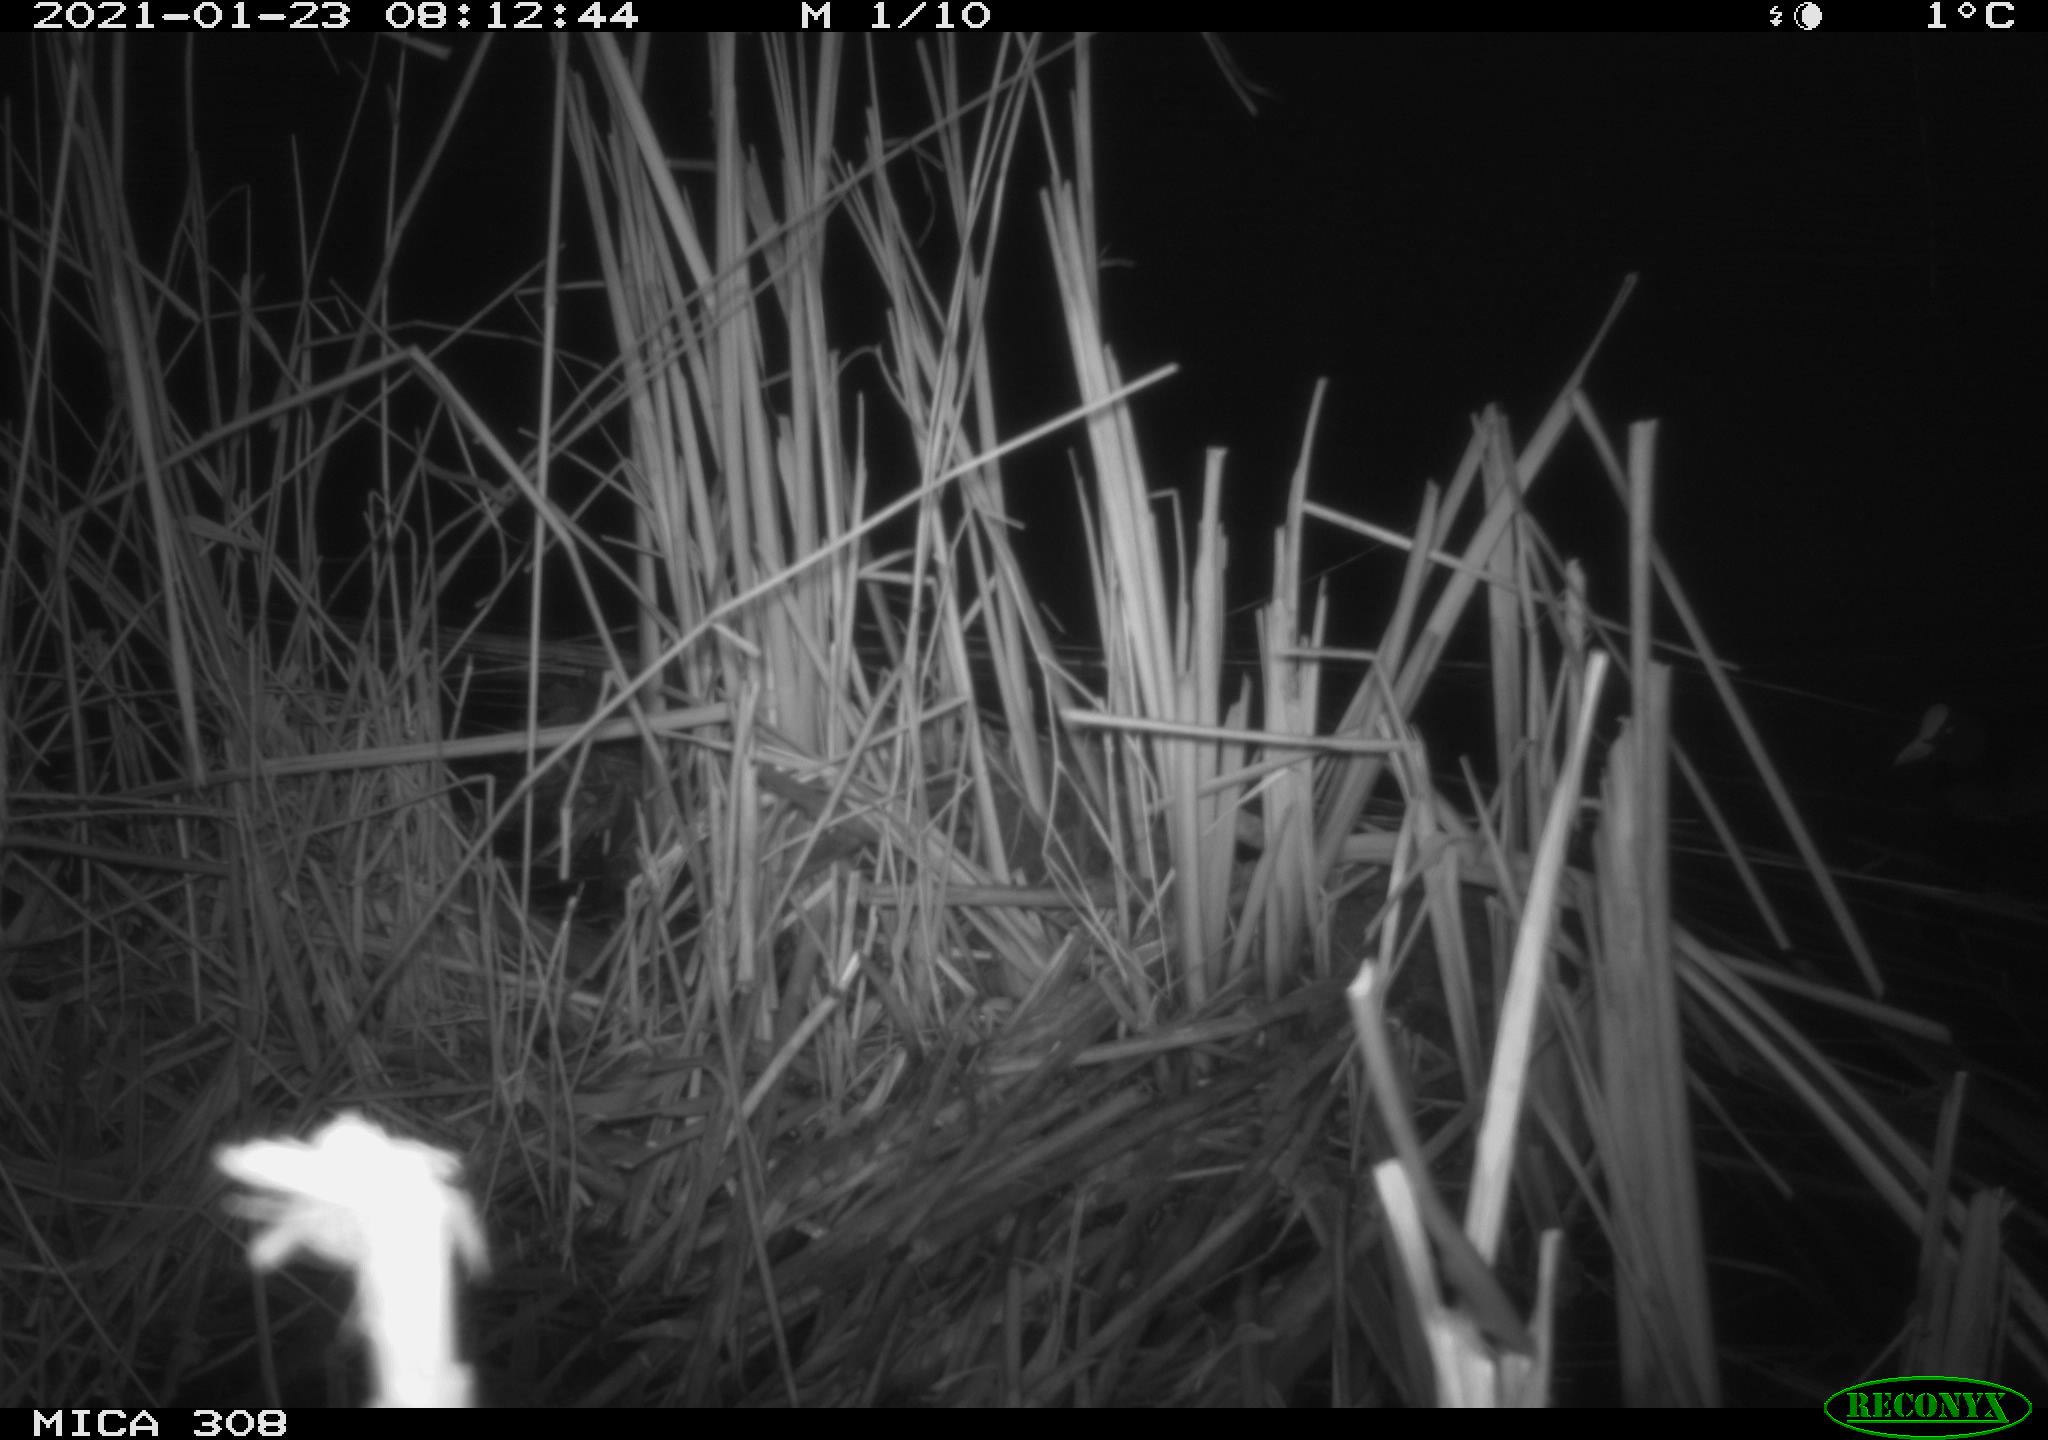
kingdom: Animalia
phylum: Chordata
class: Aves
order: Gruiformes
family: Rallidae
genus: Gallinula
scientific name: Gallinula chloropus
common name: Common moorhen
